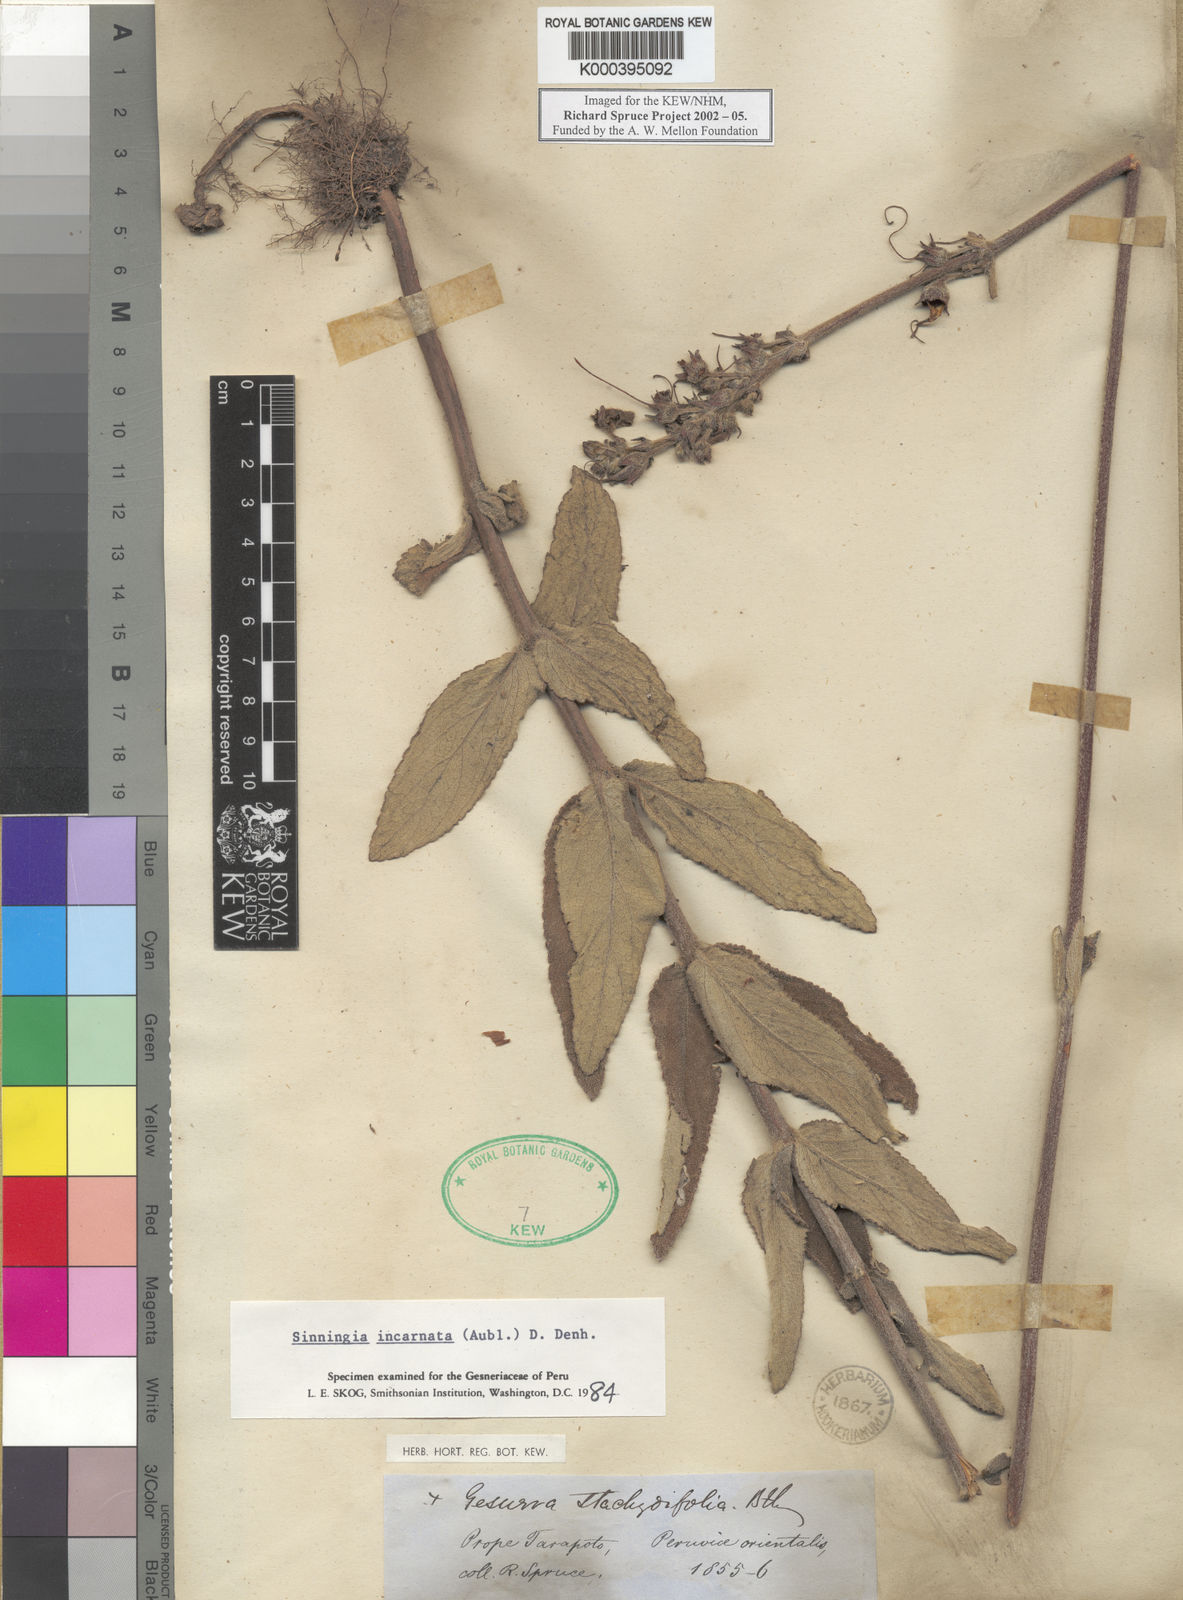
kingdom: Plantae
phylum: Tracheophyta
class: Magnoliopsida
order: Lamiales
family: Gesneriaceae
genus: Sinningia
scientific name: Sinningia incarnata
